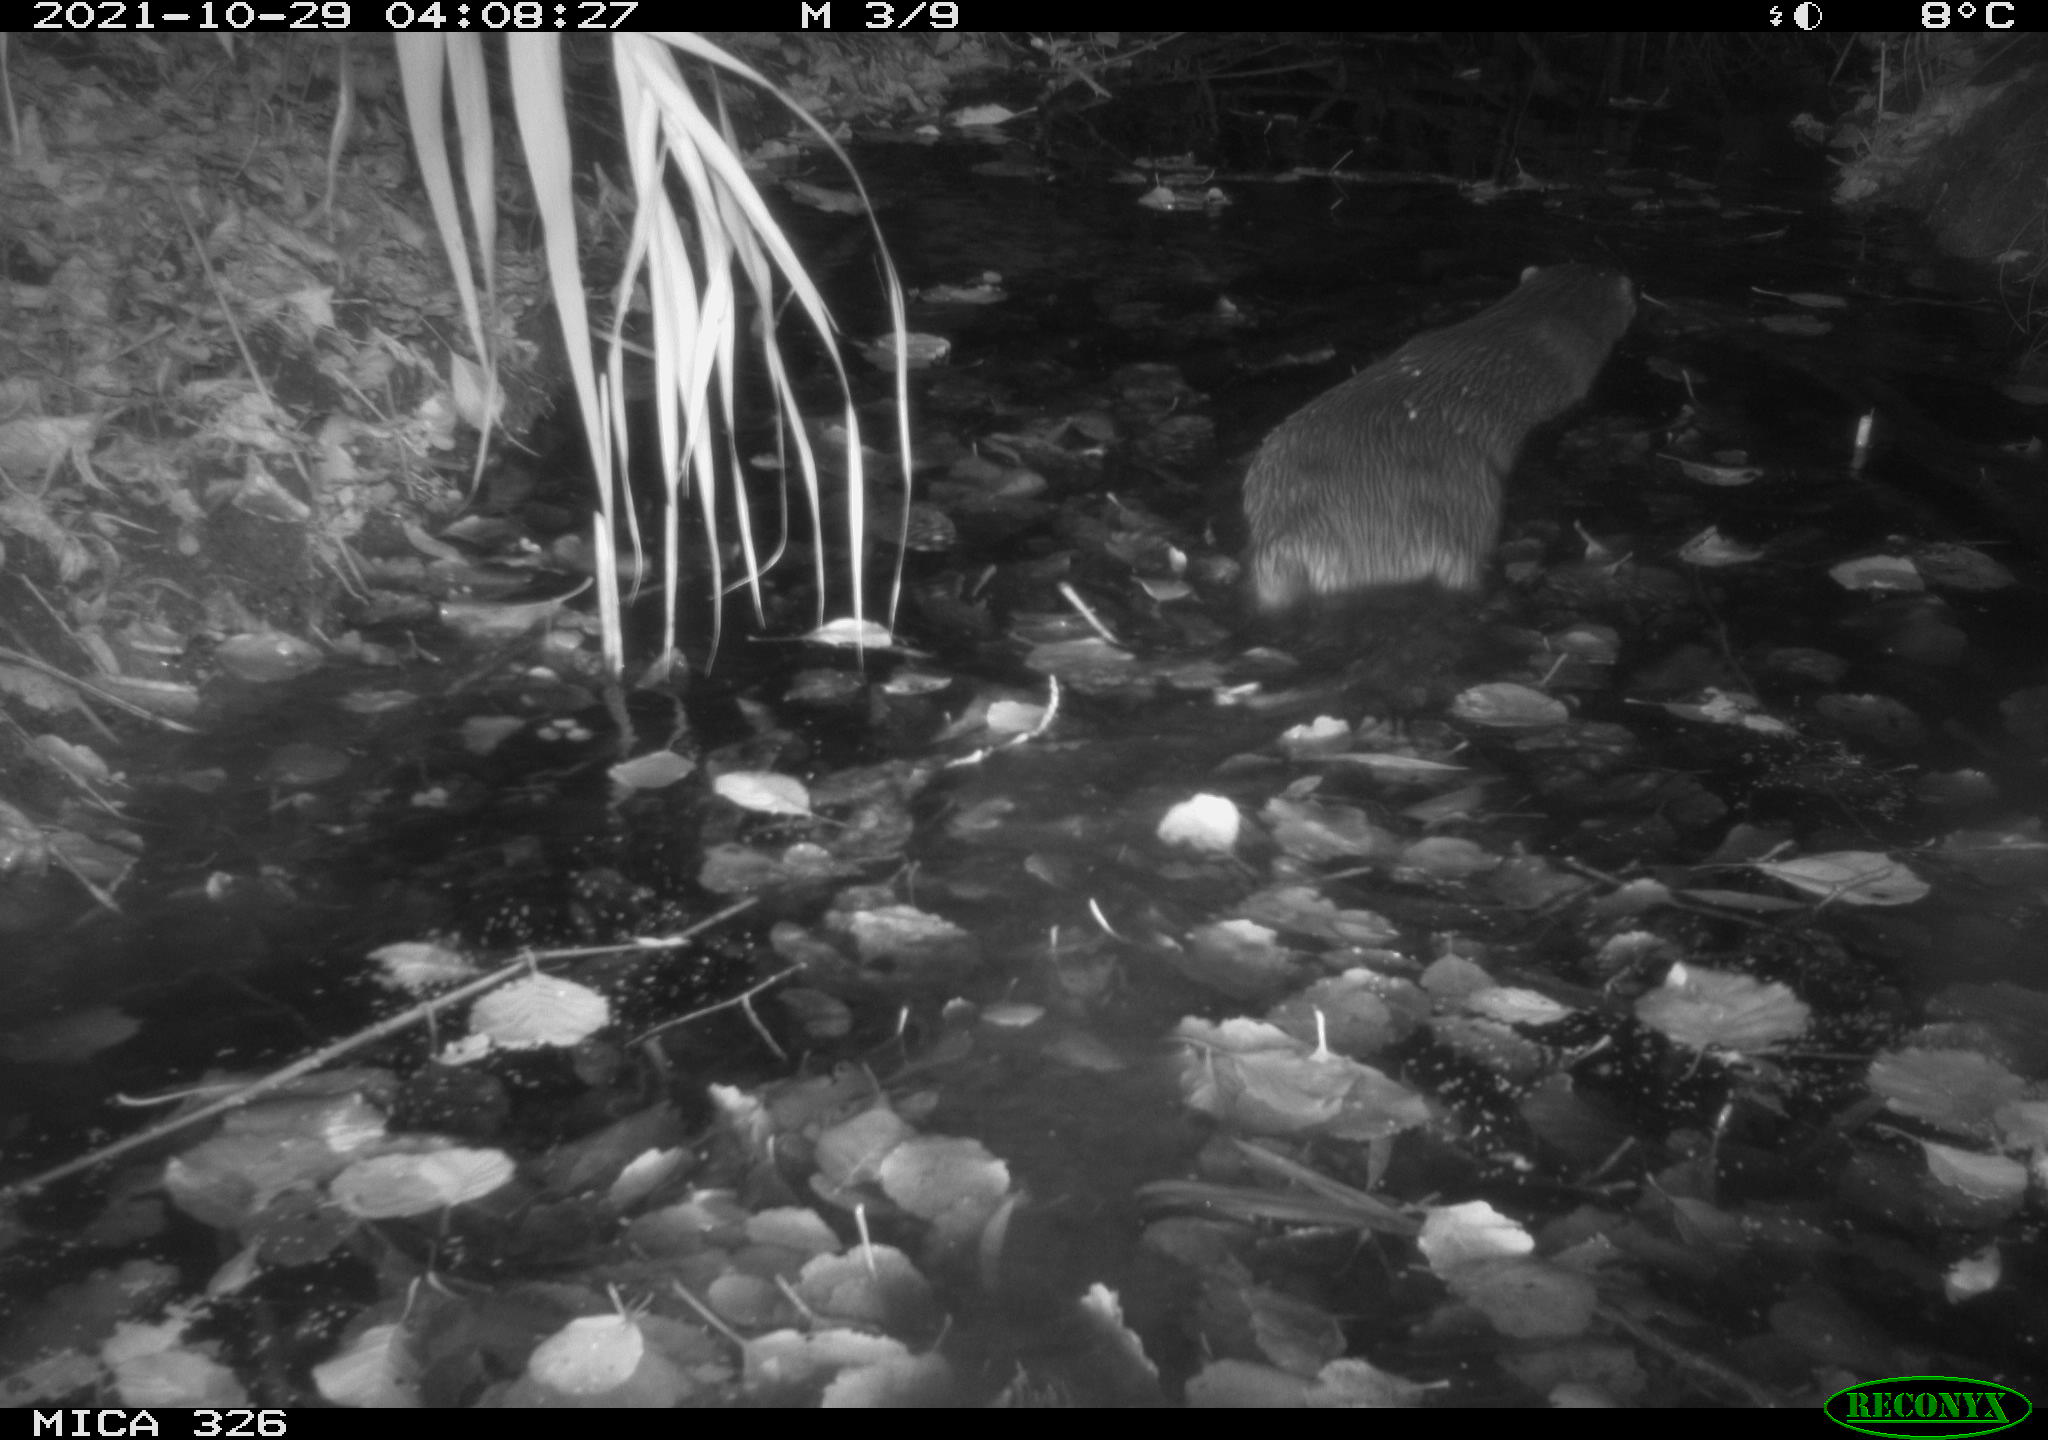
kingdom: Animalia
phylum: Chordata
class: Mammalia
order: Carnivora
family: Mustelidae
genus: Lutra
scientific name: Lutra lutra
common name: European otter
